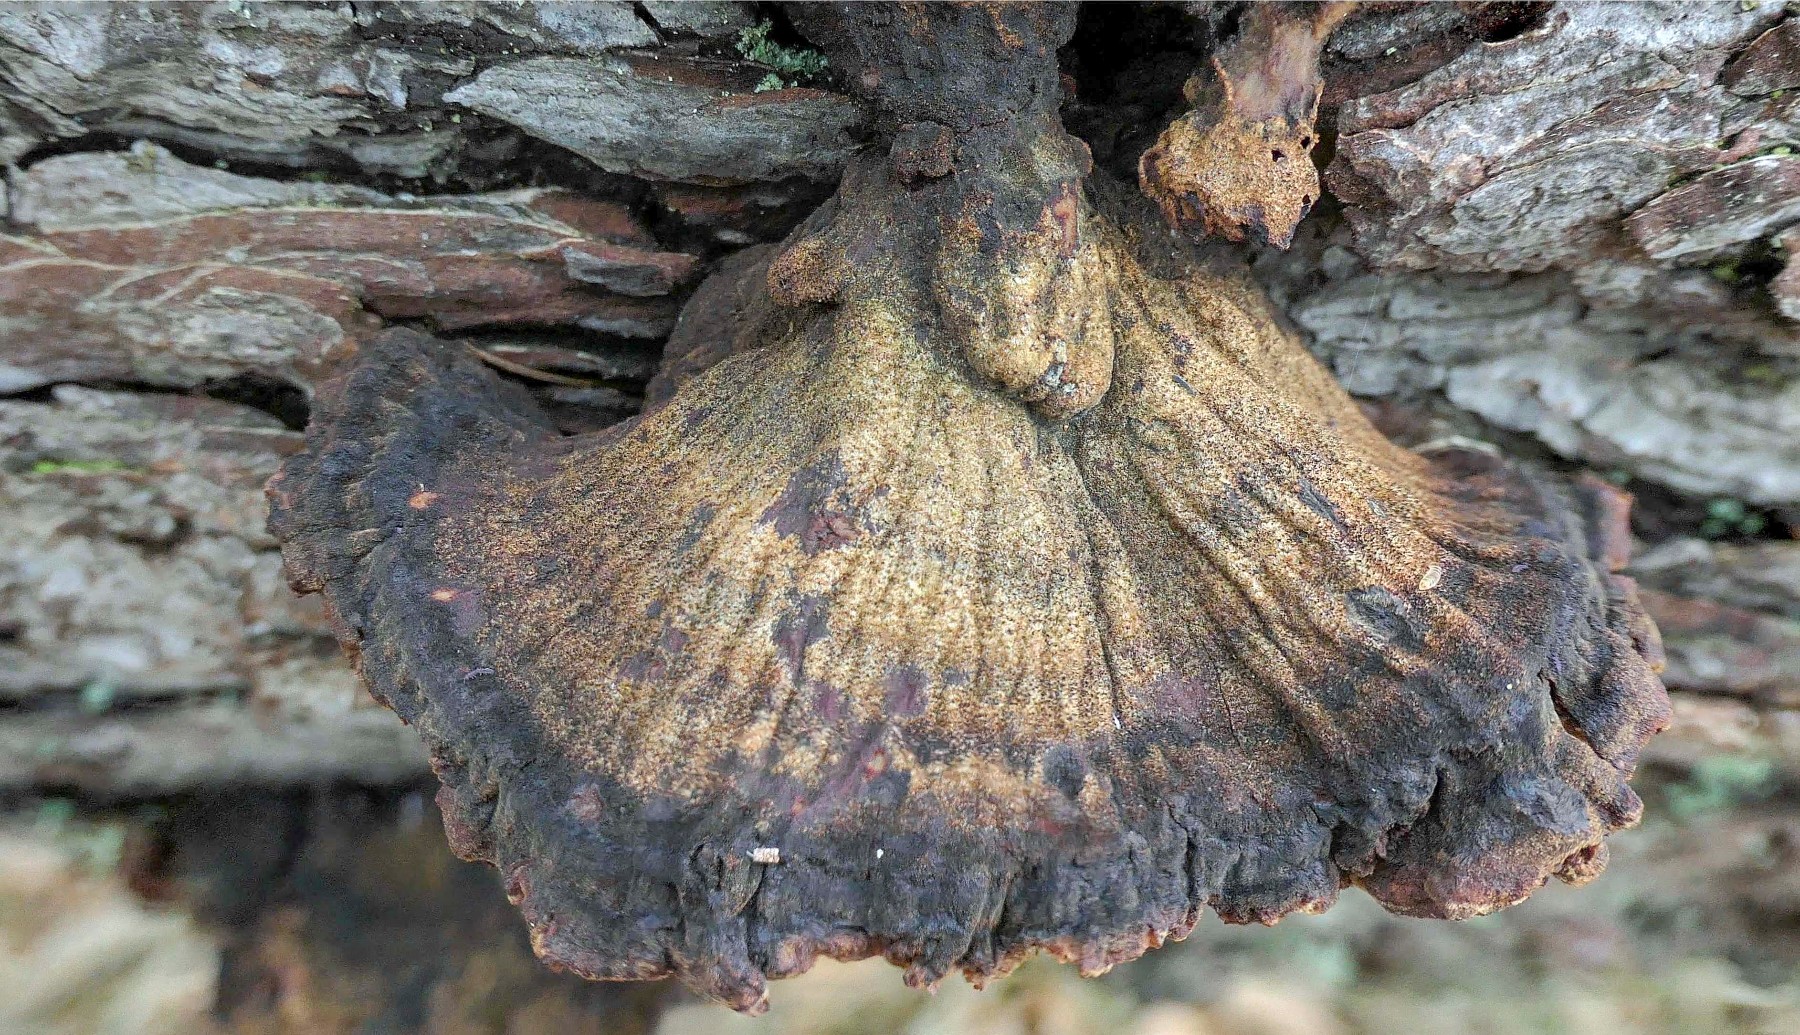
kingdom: Fungi
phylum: Basidiomycota
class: Agaricomycetes
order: Polyporales
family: Ischnodermataceae
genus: Ischnoderma
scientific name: Ischnoderma benzoinum
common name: gran-tjæreporesvamp
